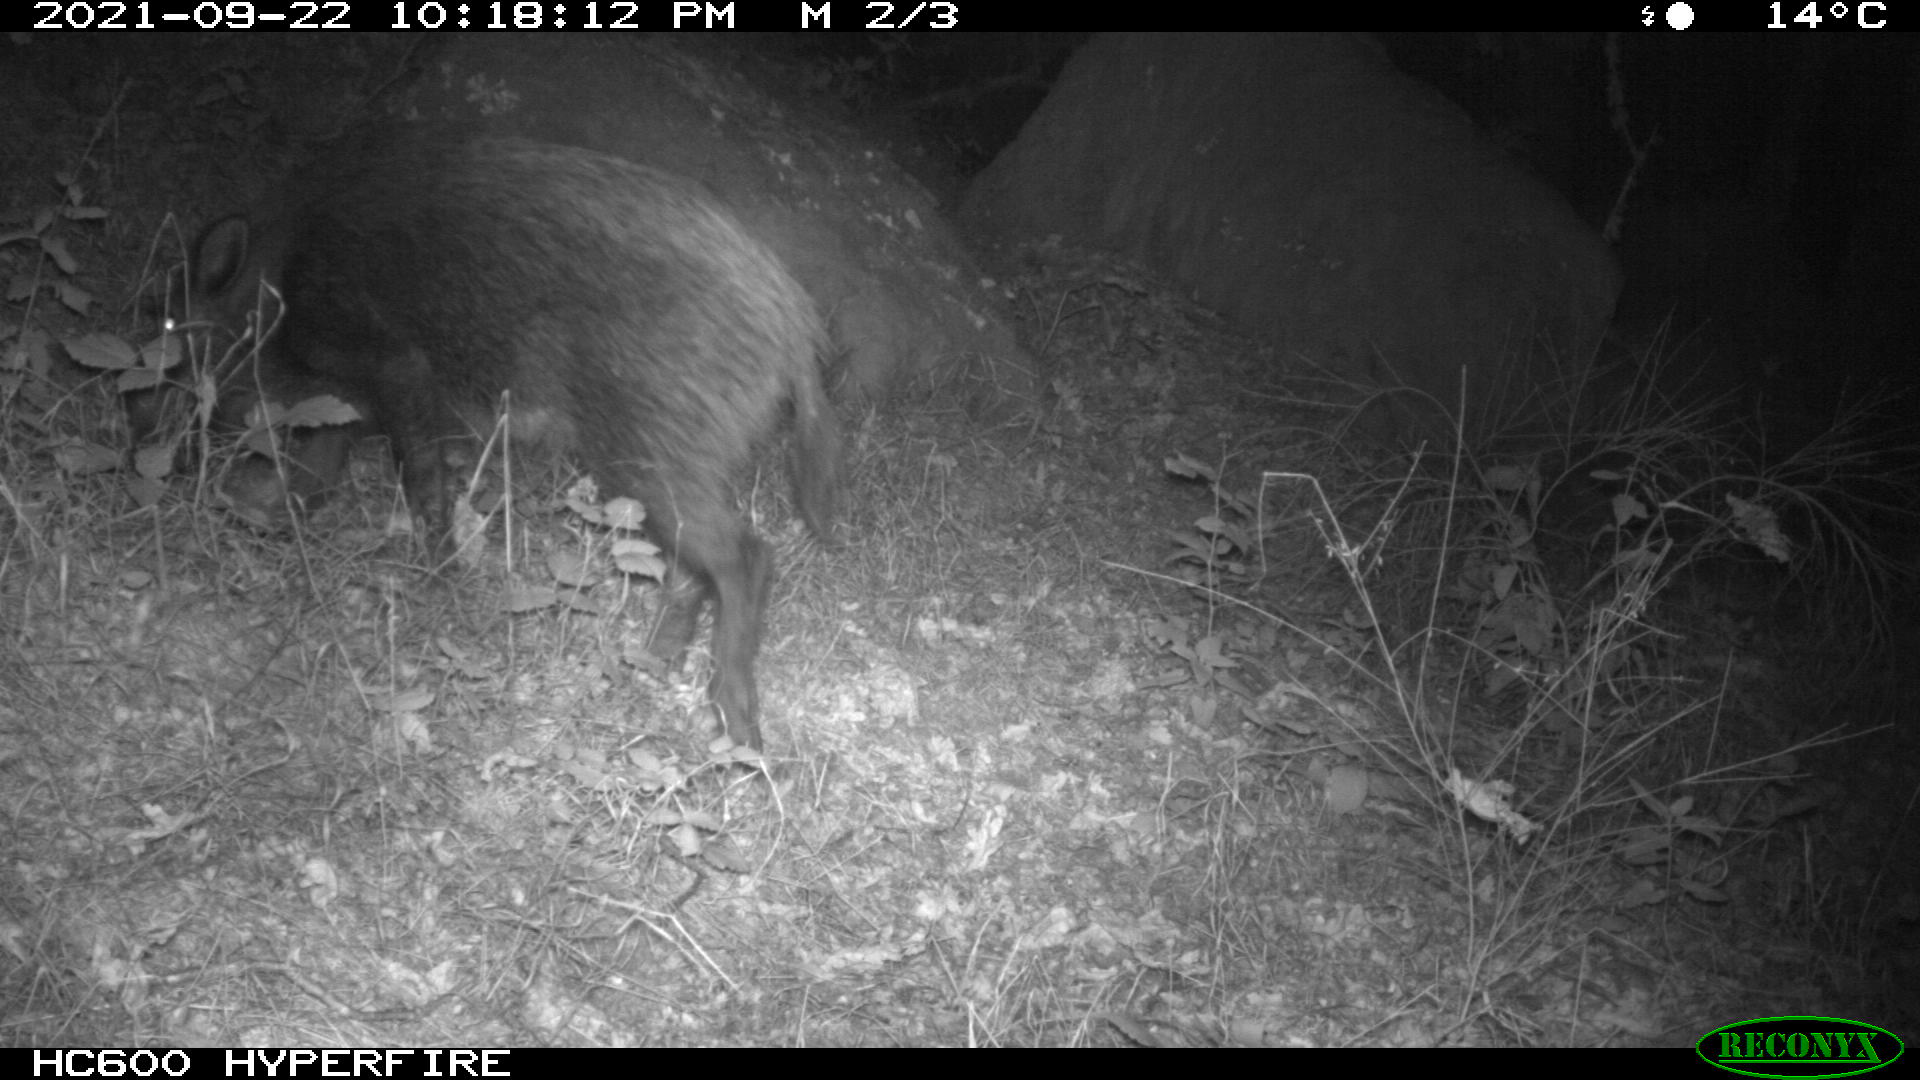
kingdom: Animalia
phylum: Chordata
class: Mammalia
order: Artiodactyla
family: Suidae
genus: Sus
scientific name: Sus scrofa
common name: Wild boar
